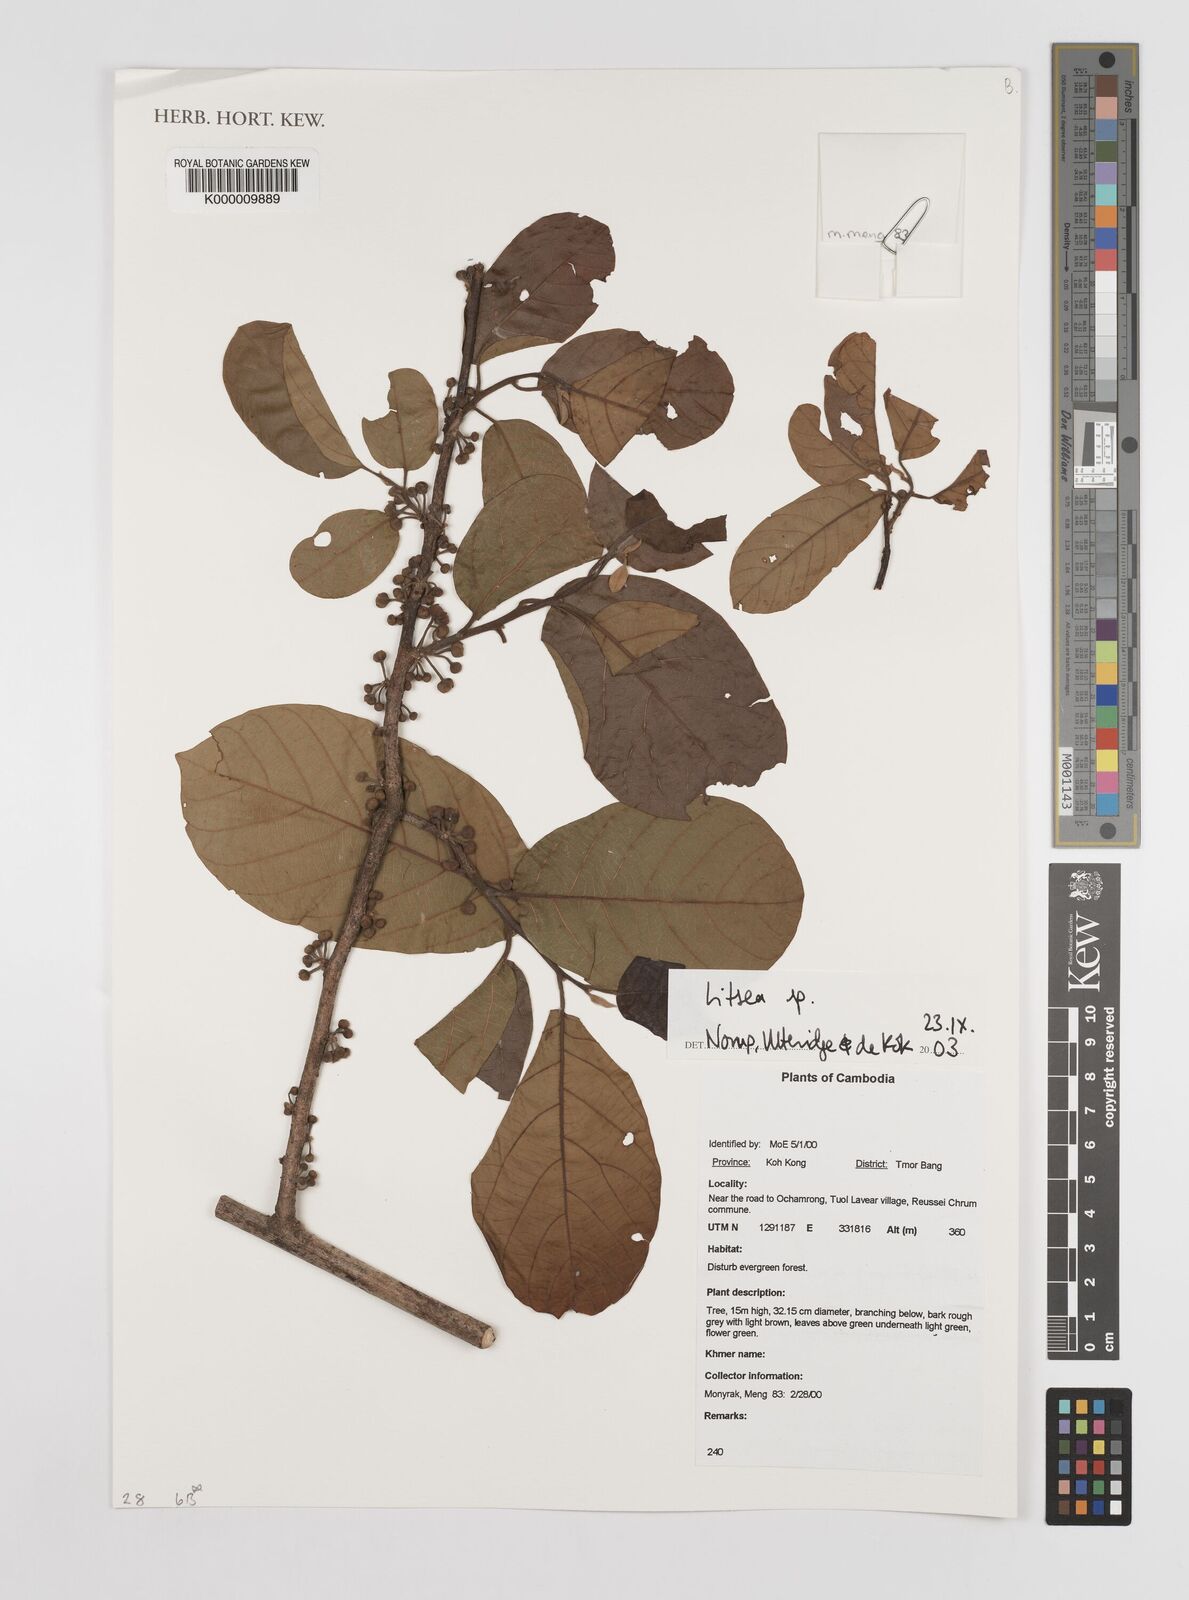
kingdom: Plantae
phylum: Tracheophyta
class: Magnoliopsida
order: Laurales
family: Lauraceae
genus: Litsea
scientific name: Litsea
